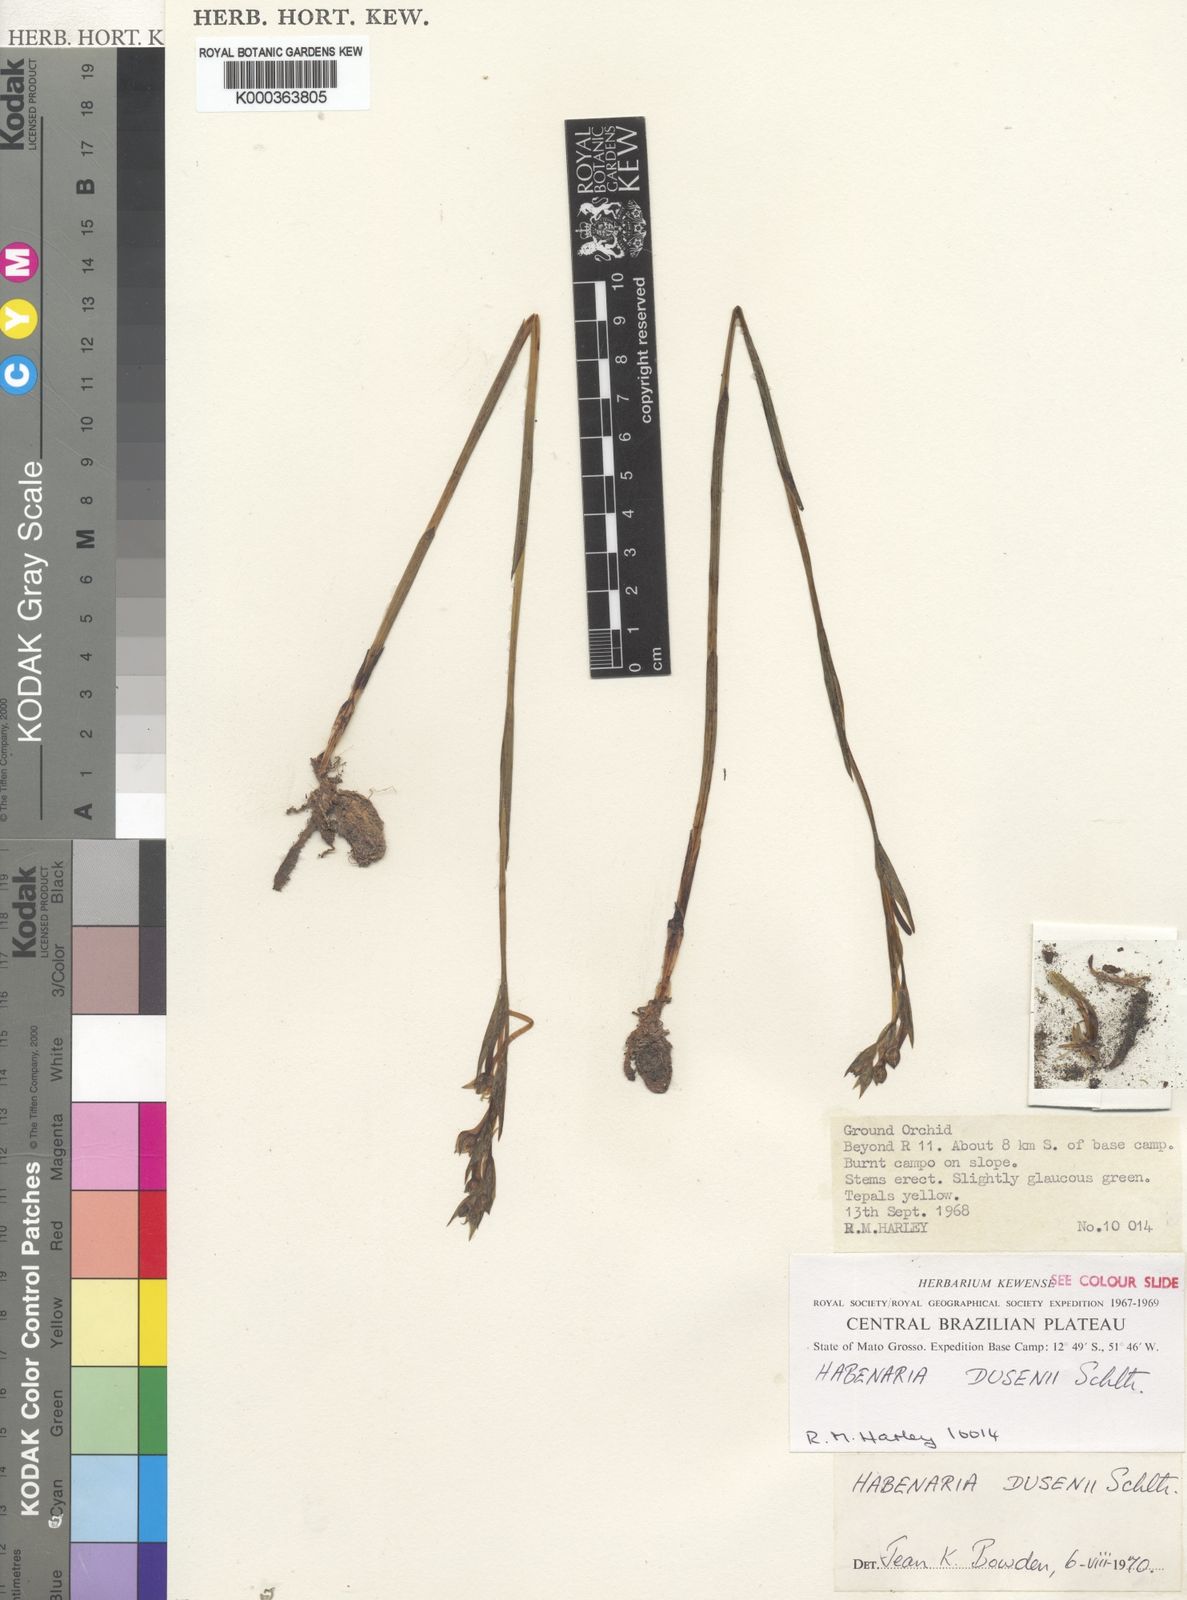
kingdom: Plantae
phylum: Tracheophyta
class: Liliopsida
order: Asparagales
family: Orchidaceae
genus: Habenaria
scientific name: Habenaria dusenii
